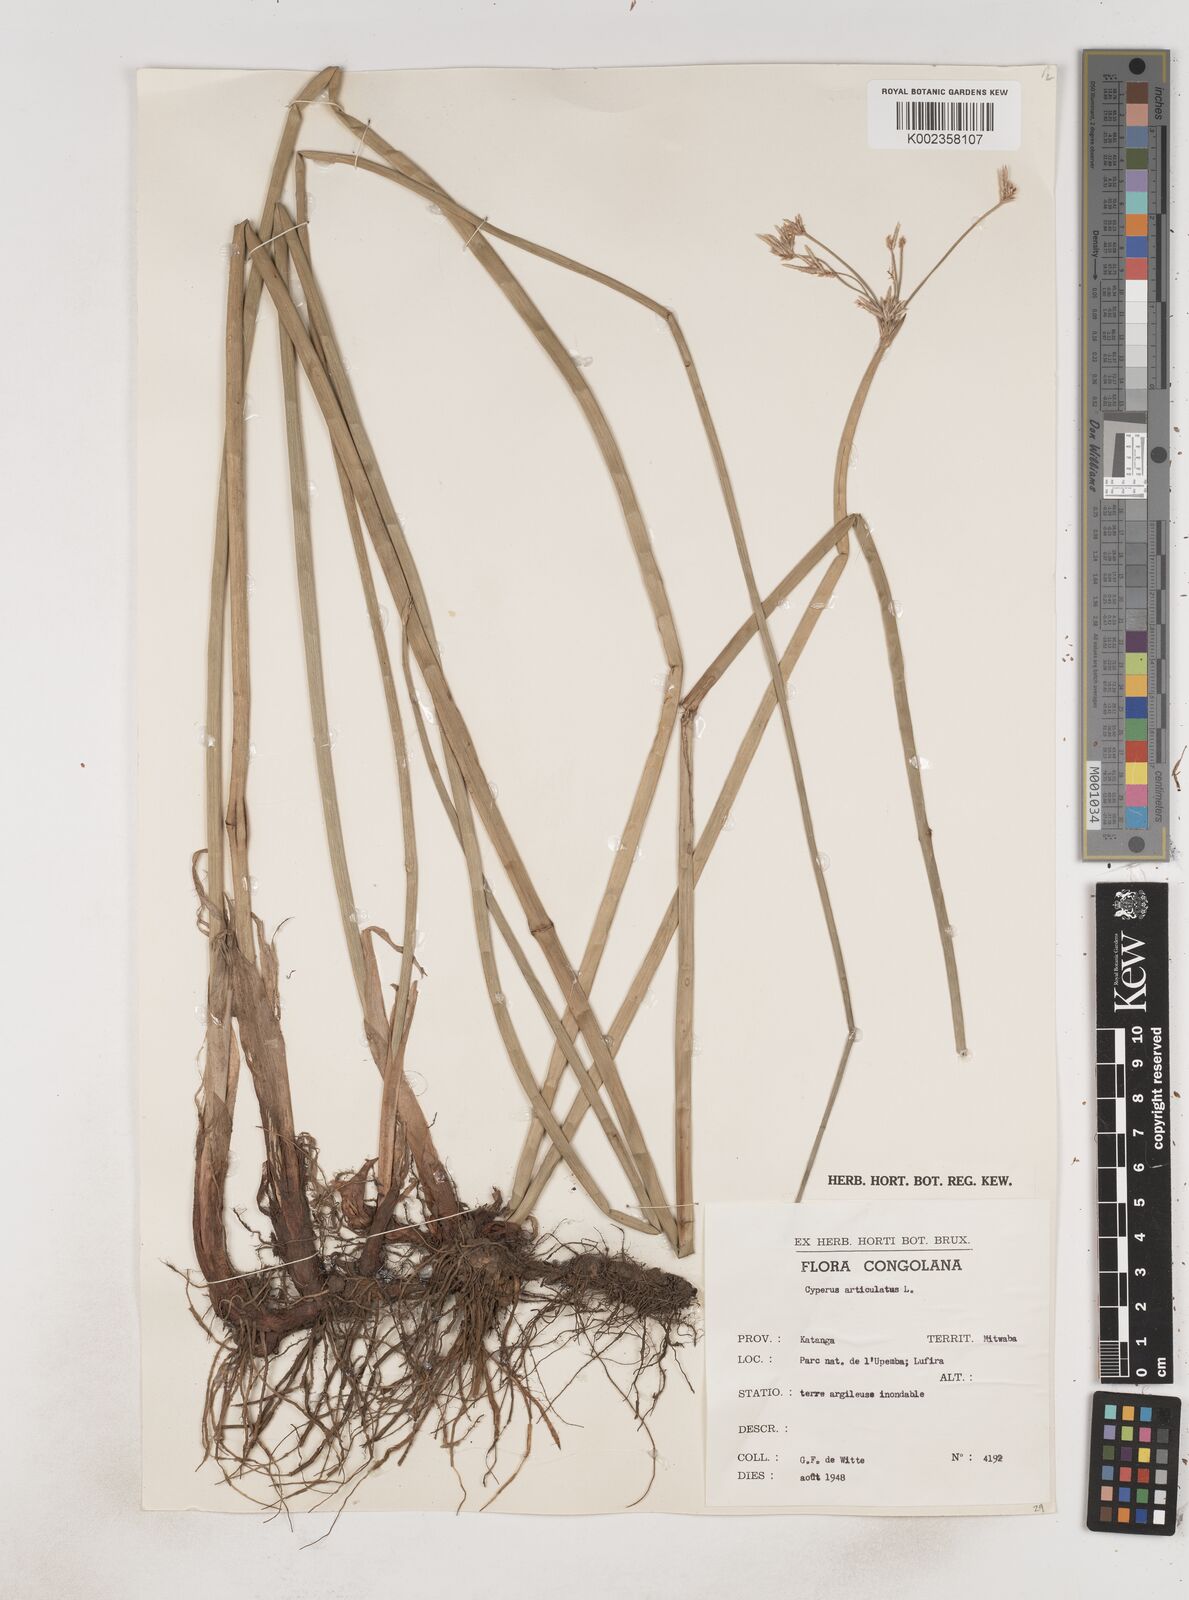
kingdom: Plantae
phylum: Tracheophyta
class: Liliopsida
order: Poales
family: Cyperaceae
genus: Cyperus
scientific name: Cyperus articulatus
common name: Jointed flatsedge
